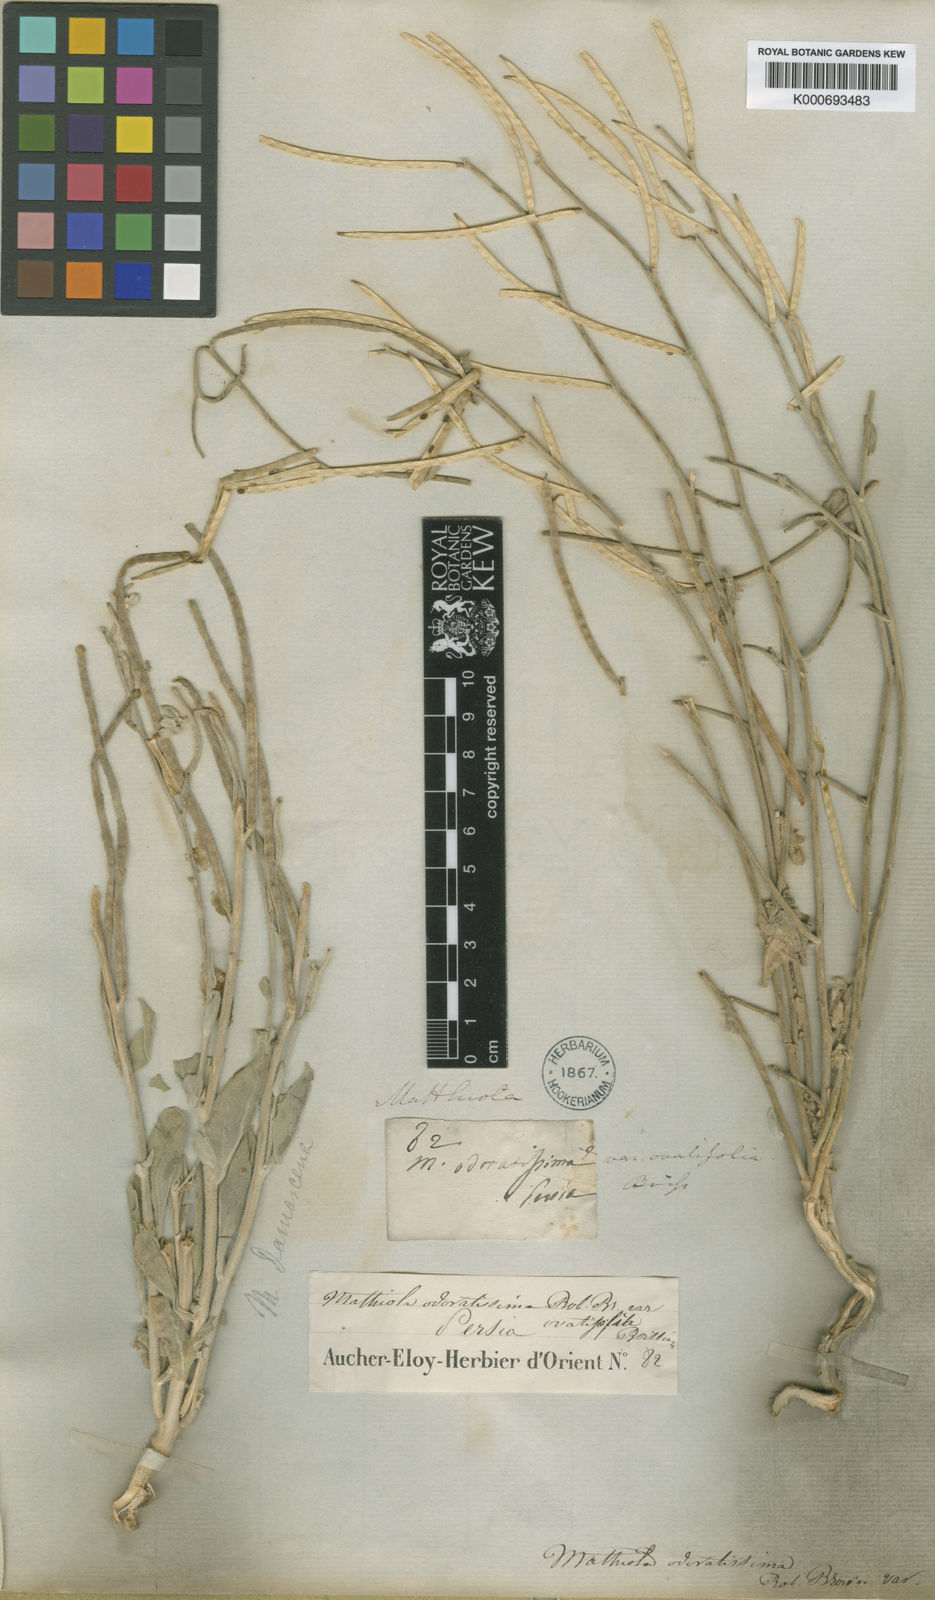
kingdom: Plantae
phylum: Tracheophyta
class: Magnoliopsida
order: Brassicales
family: Brassicaceae
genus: Matthiola
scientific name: Matthiola ovatifolia
